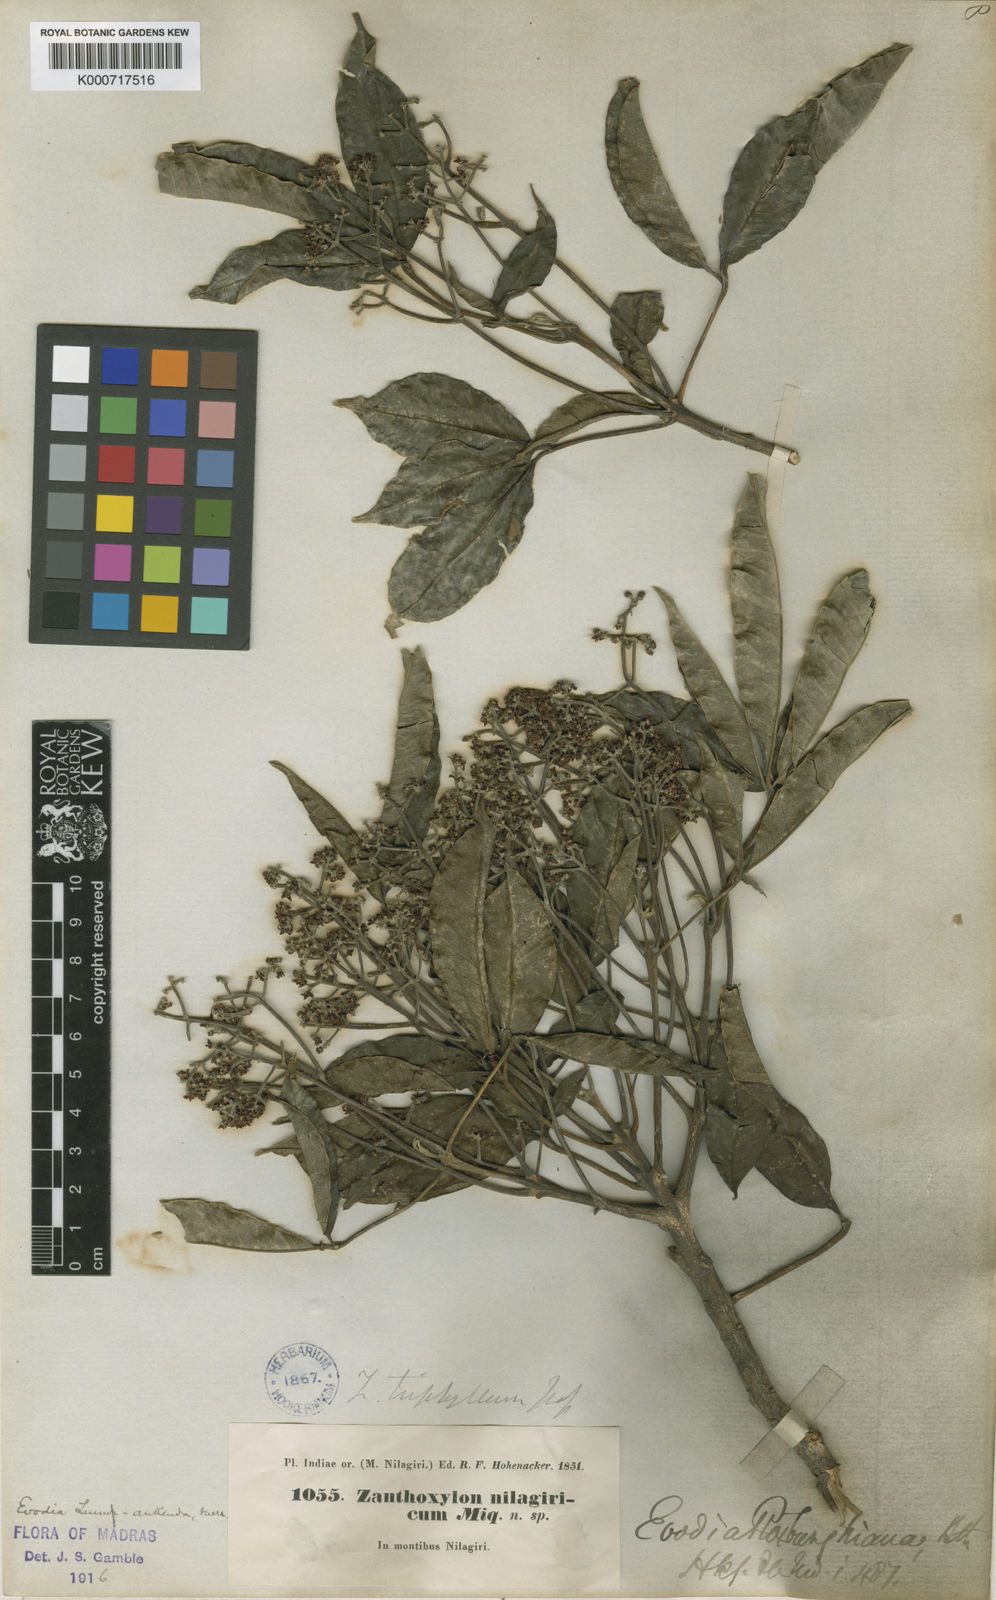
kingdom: Plantae
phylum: Tracheophyta
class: Magnoliopsida
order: Sapindales
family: Rutaceae
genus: Melicope
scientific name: Melicope lunu-ankenda
